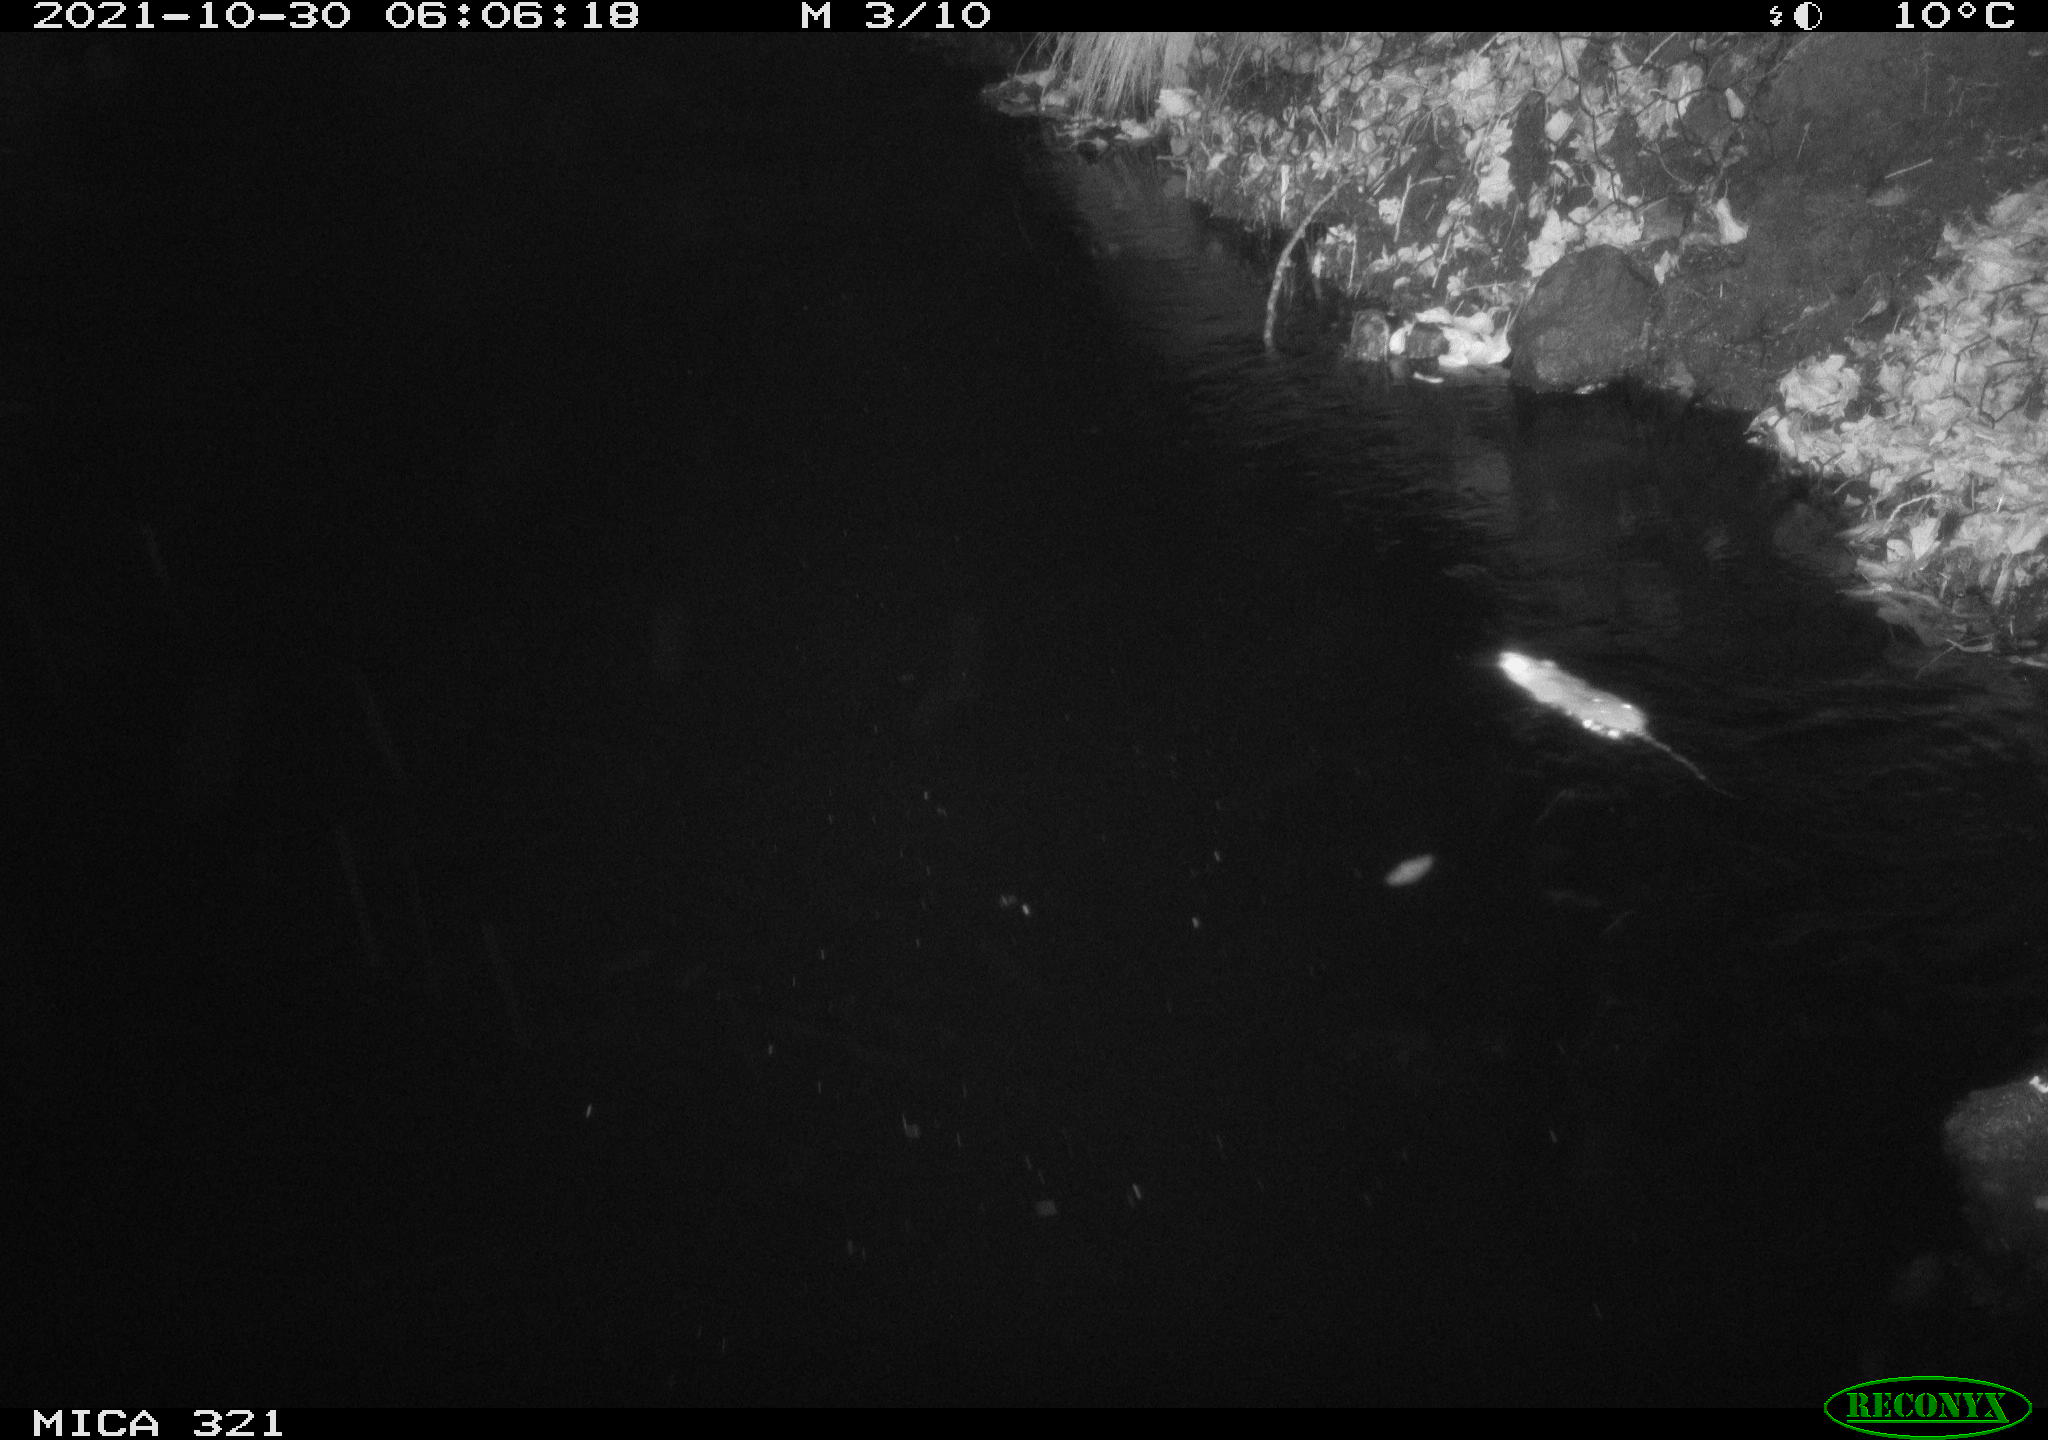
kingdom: Animalia
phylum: Chordata
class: Mammalia
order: Rodentia
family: Muridae
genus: Rattus
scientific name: Rattus norvegicus
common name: Brown rat
